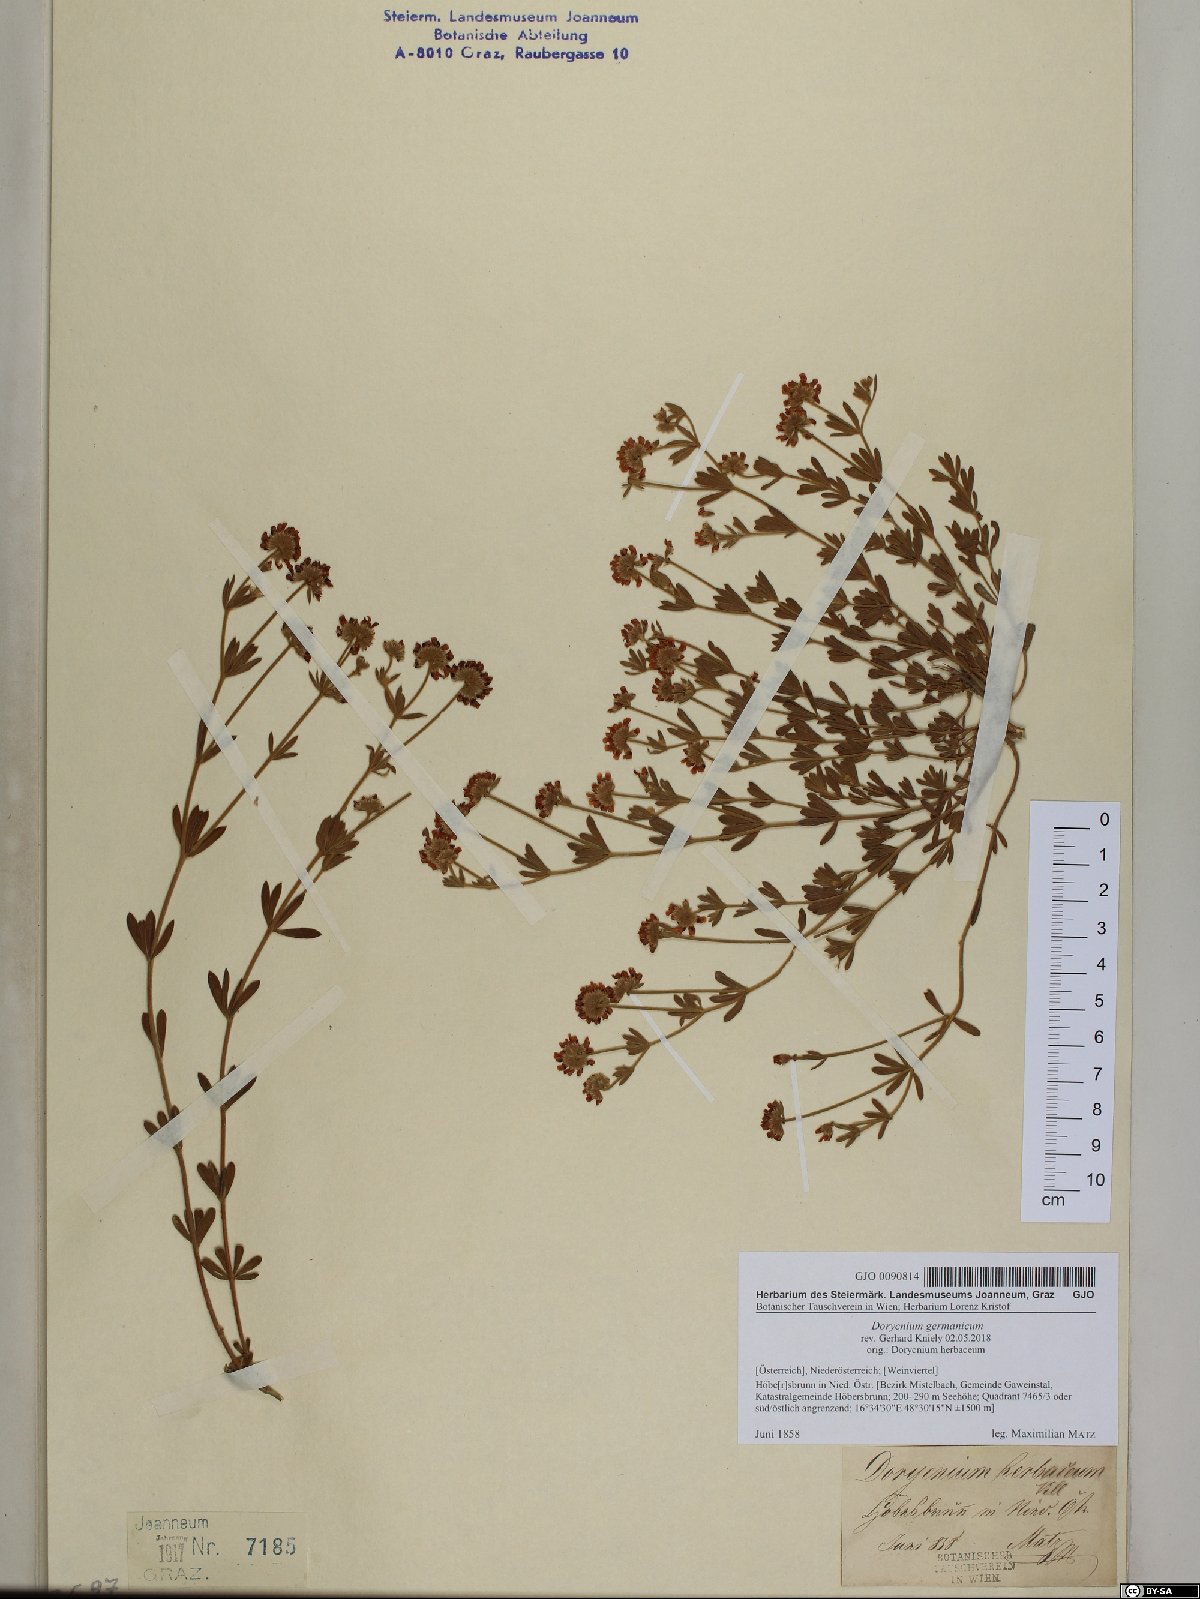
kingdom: Plantae
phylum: Tracheophyta
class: Magnoliopsida
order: Fabales
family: Fabaceae
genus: Lotus
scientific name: Lotus germanicus
